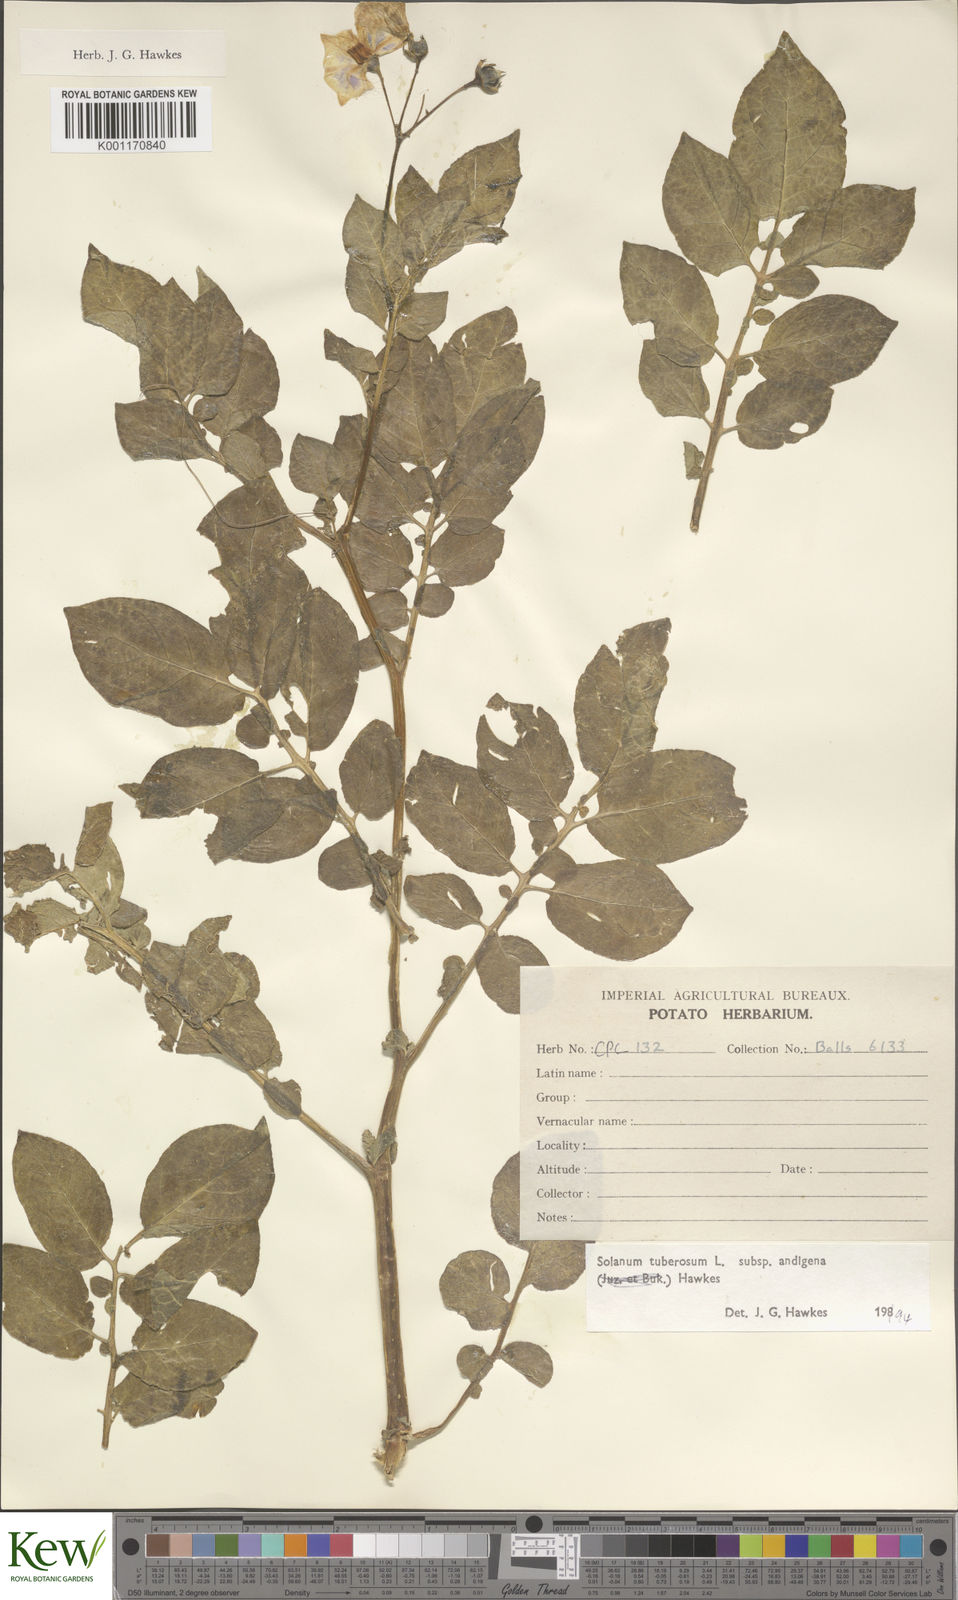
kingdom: Plantae
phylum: Tracheophyta
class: Magnoliopsida
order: Solanales
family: Solanaceae
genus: Solanum
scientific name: Solanum tuberosum
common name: Potato
